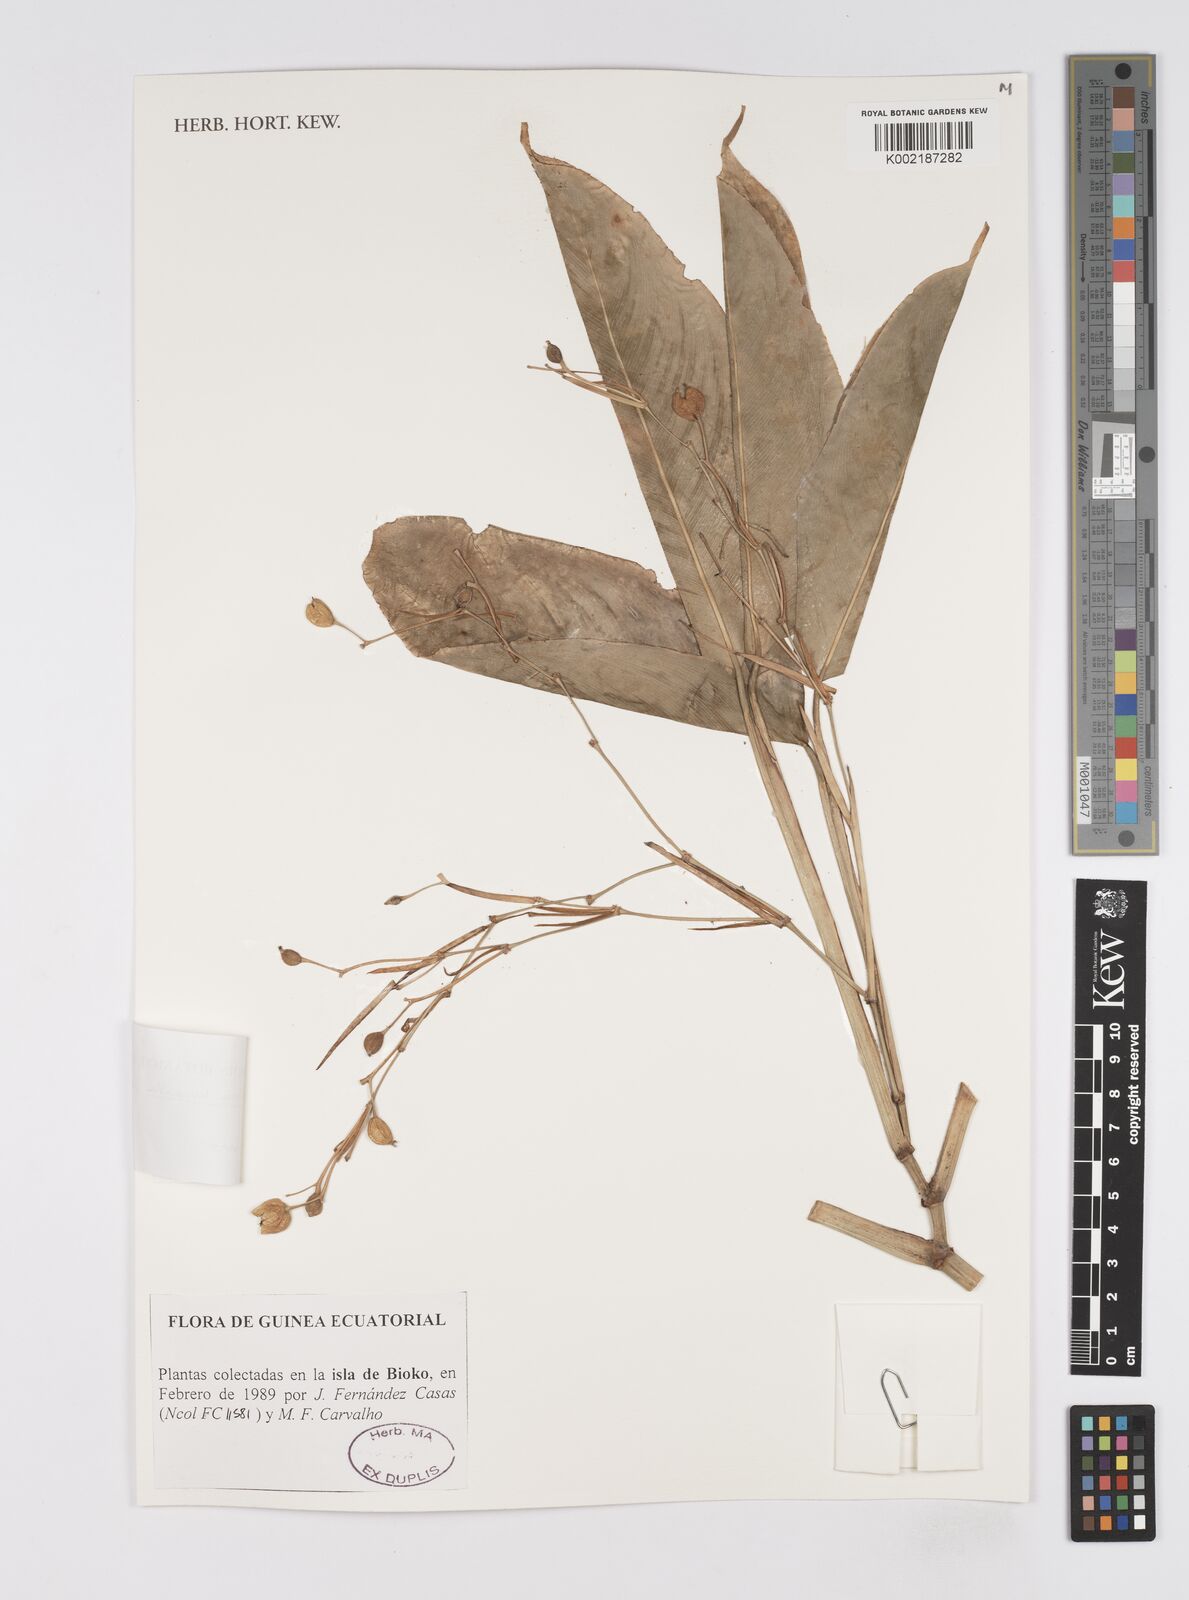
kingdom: Plantae
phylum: Tracheophyta
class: Liliopsida
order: Zingiberales
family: Marantaceae
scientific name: Marantaceae
